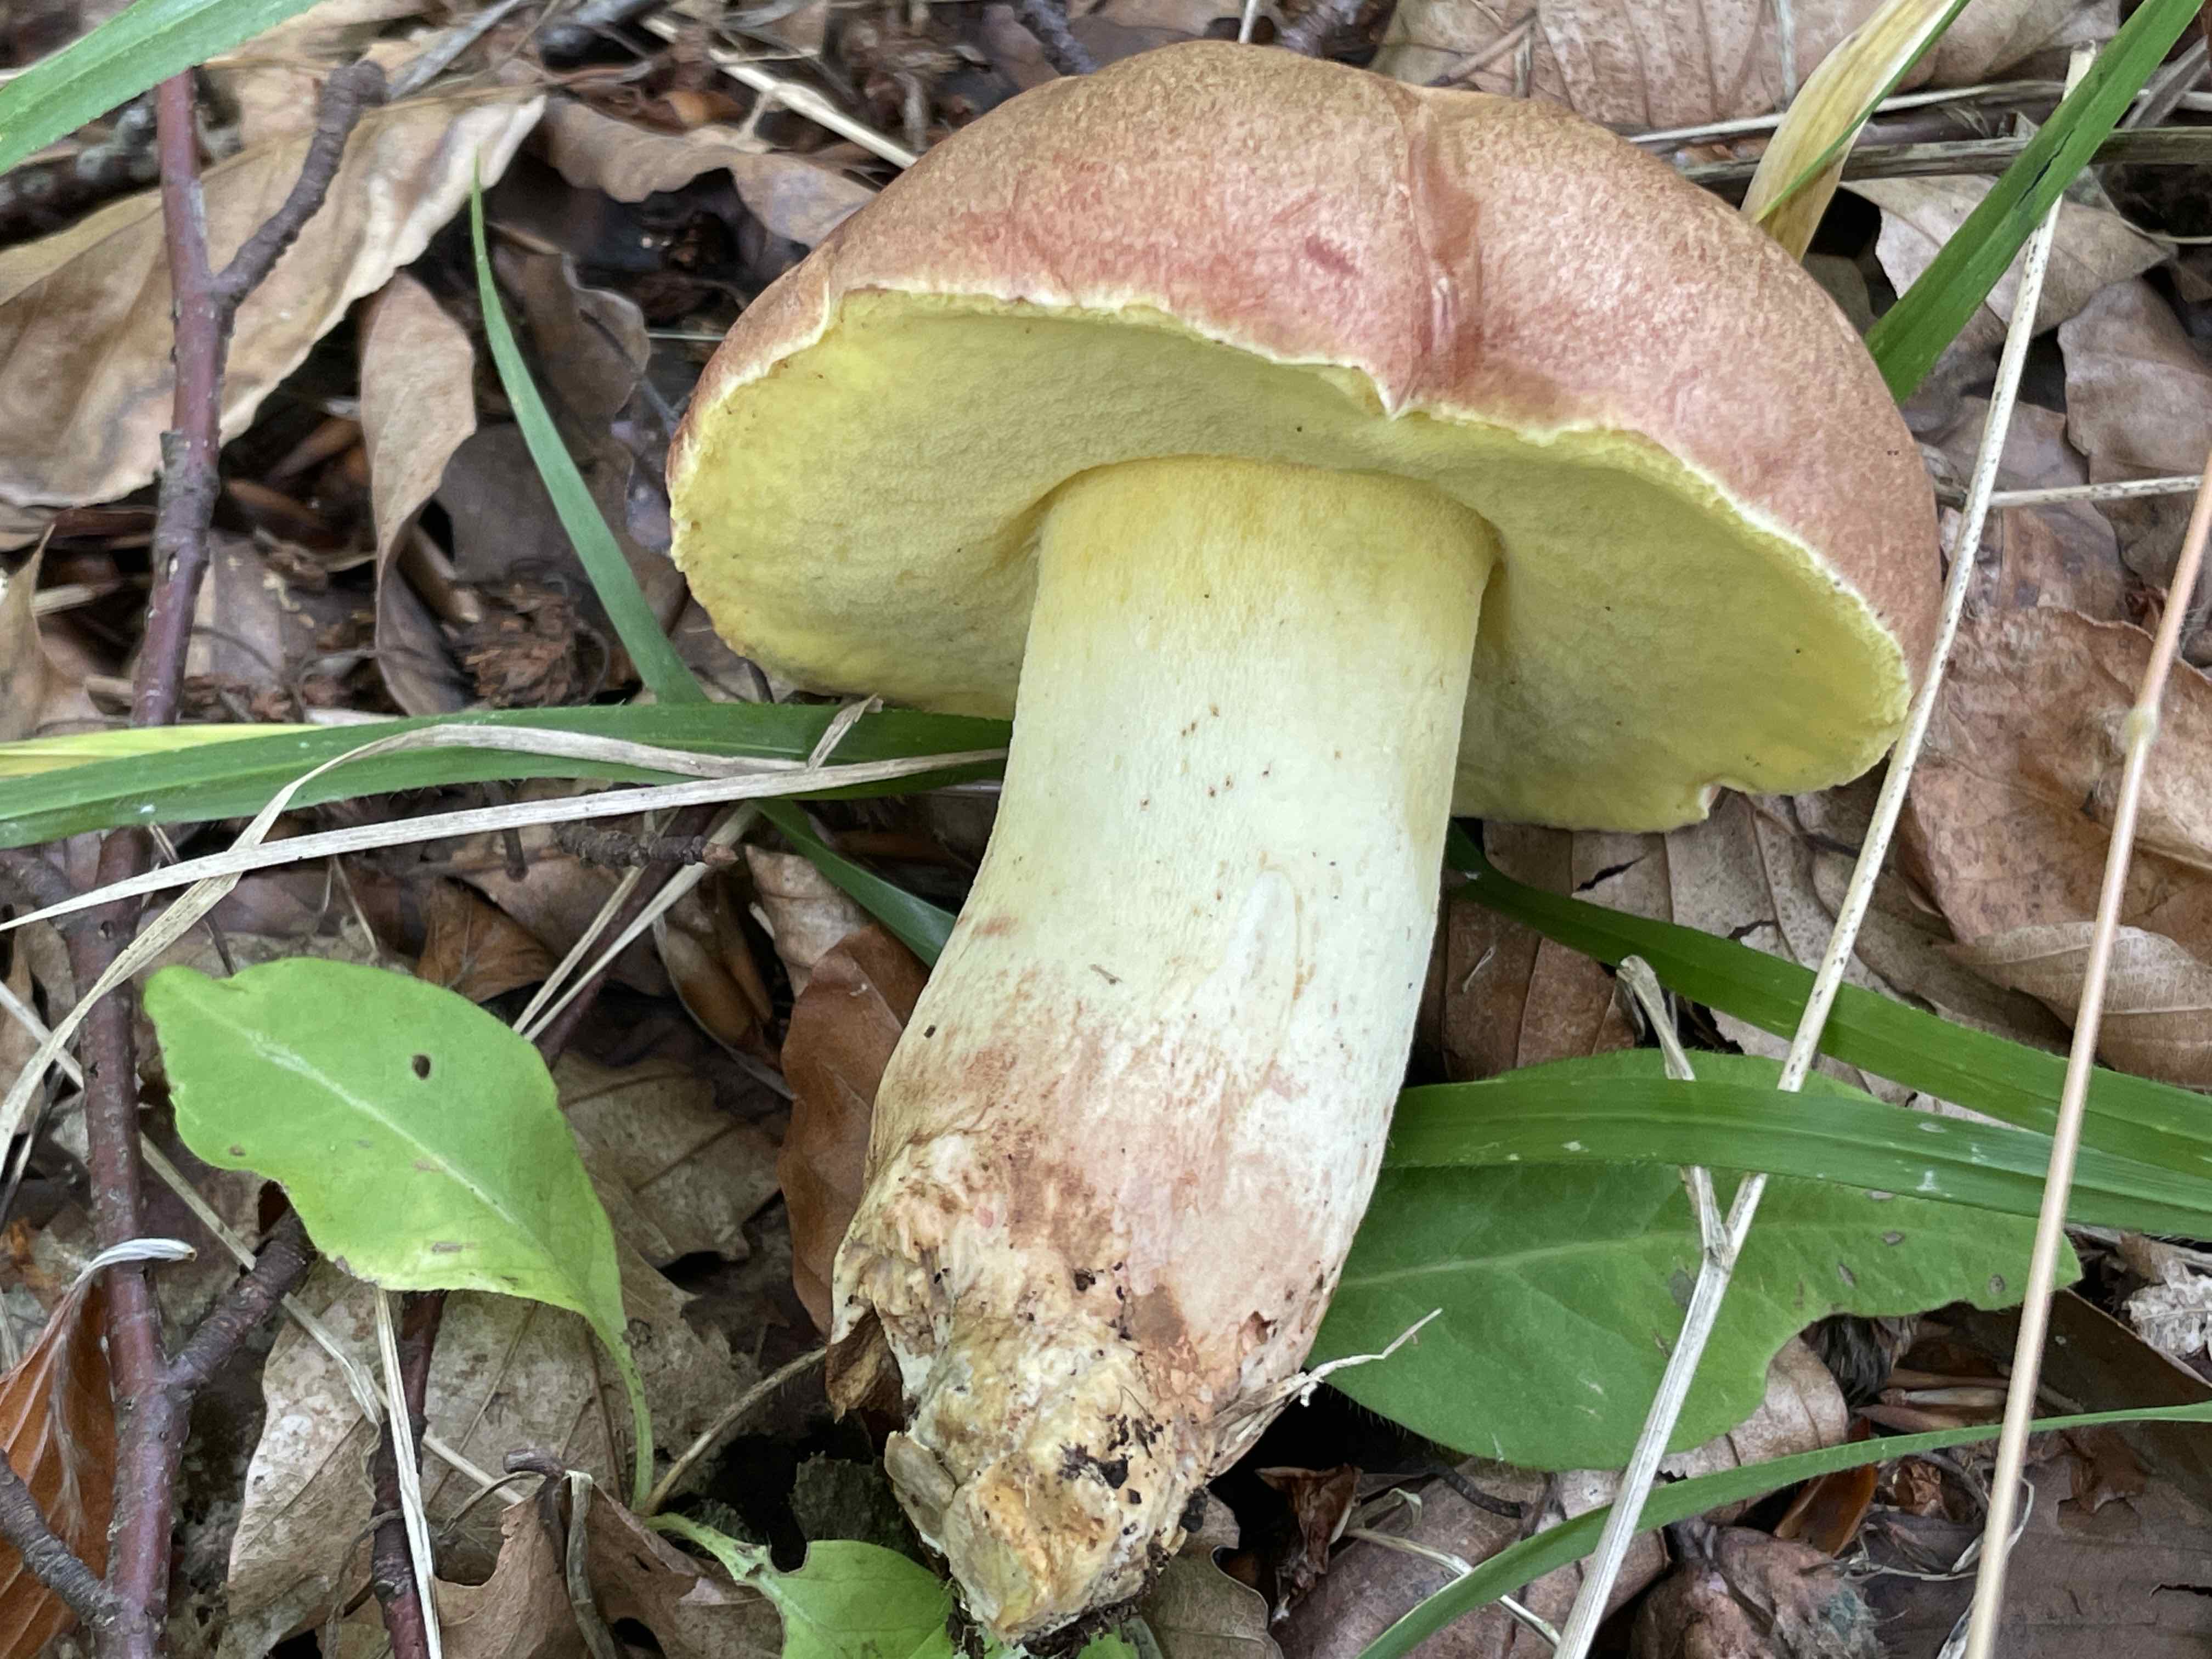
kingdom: Fungi
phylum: Basidiomycota
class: Agaricomycetes
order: Boletales
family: Boletaceae
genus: Butyriboletus
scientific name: Butyriboletus appendiculatus
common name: tenstokket rørhat
